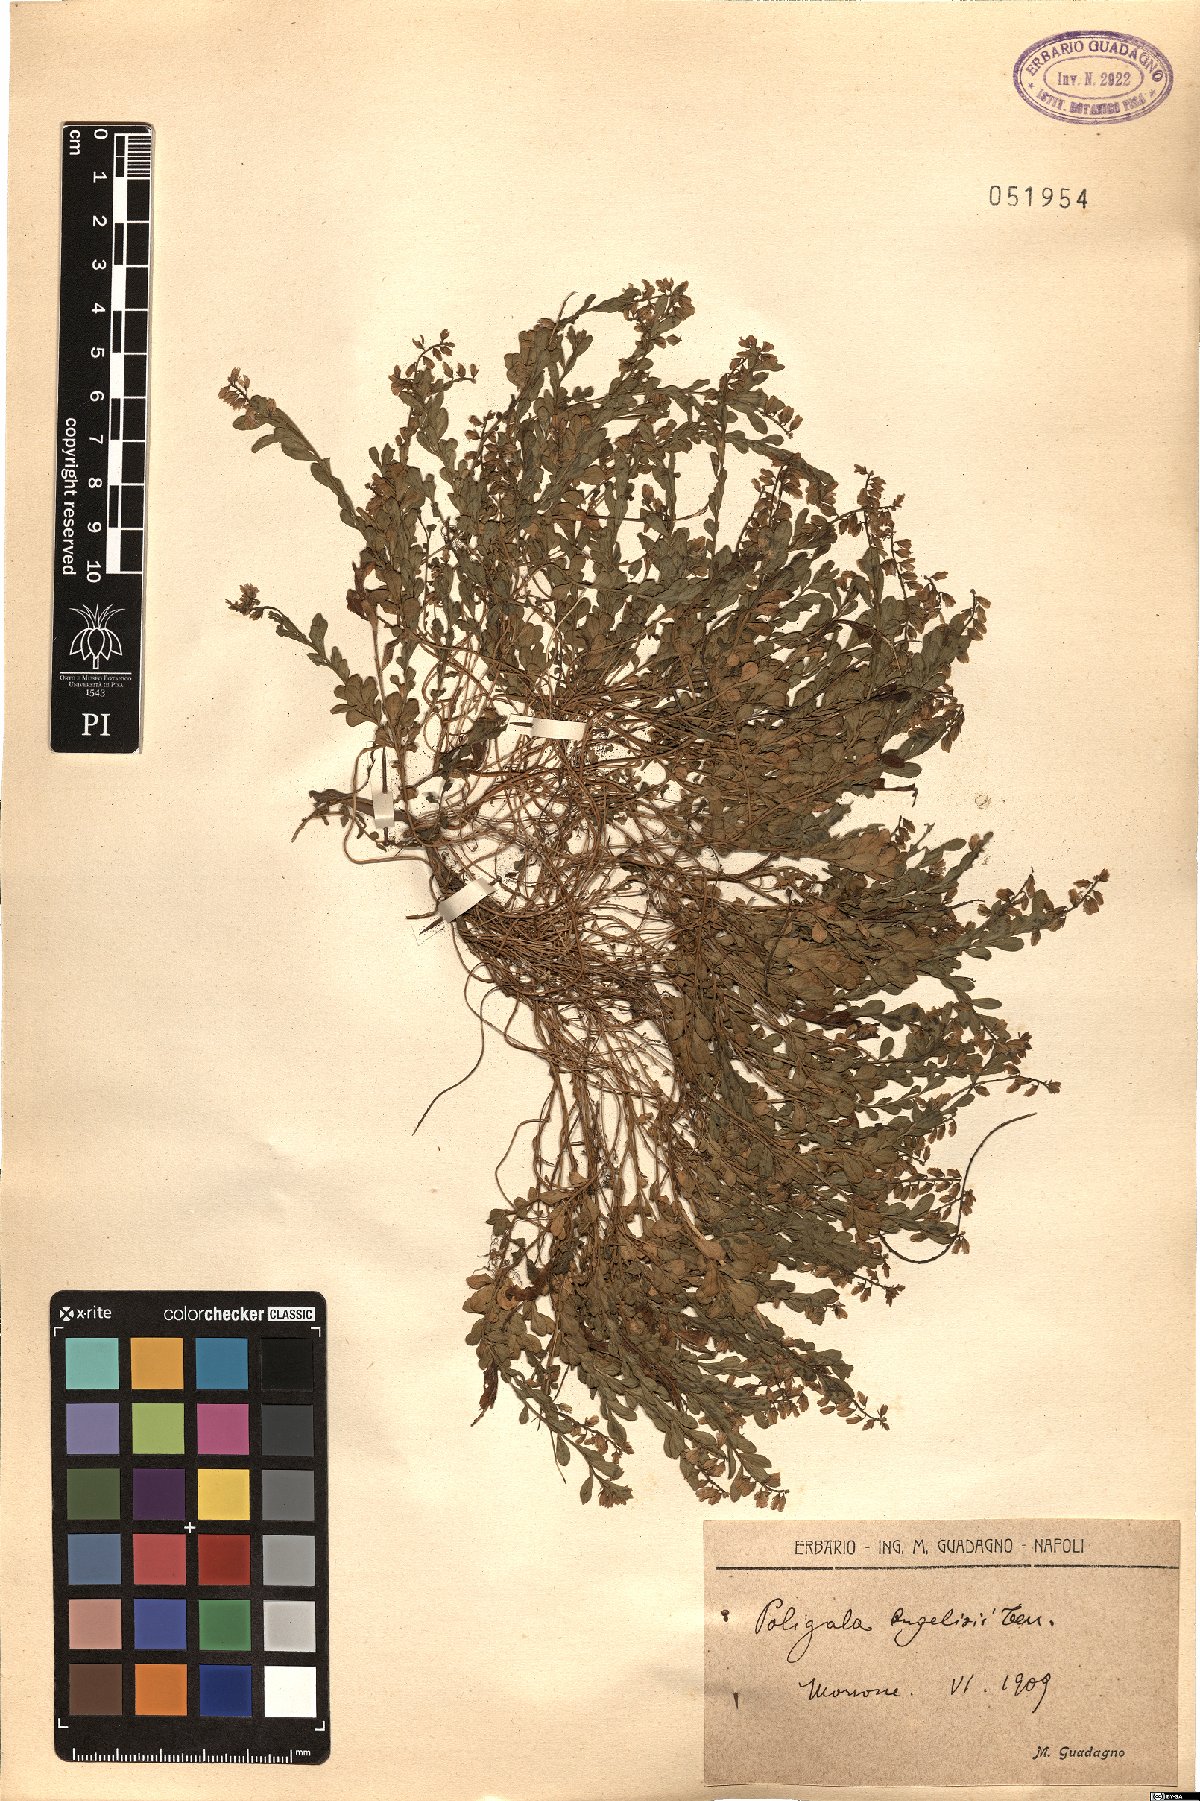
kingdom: Plantae
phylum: Tracheophyta
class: Magnoliopsida
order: Fabales
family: Polygalaceae
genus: Polygala
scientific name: Polygala angelisia
